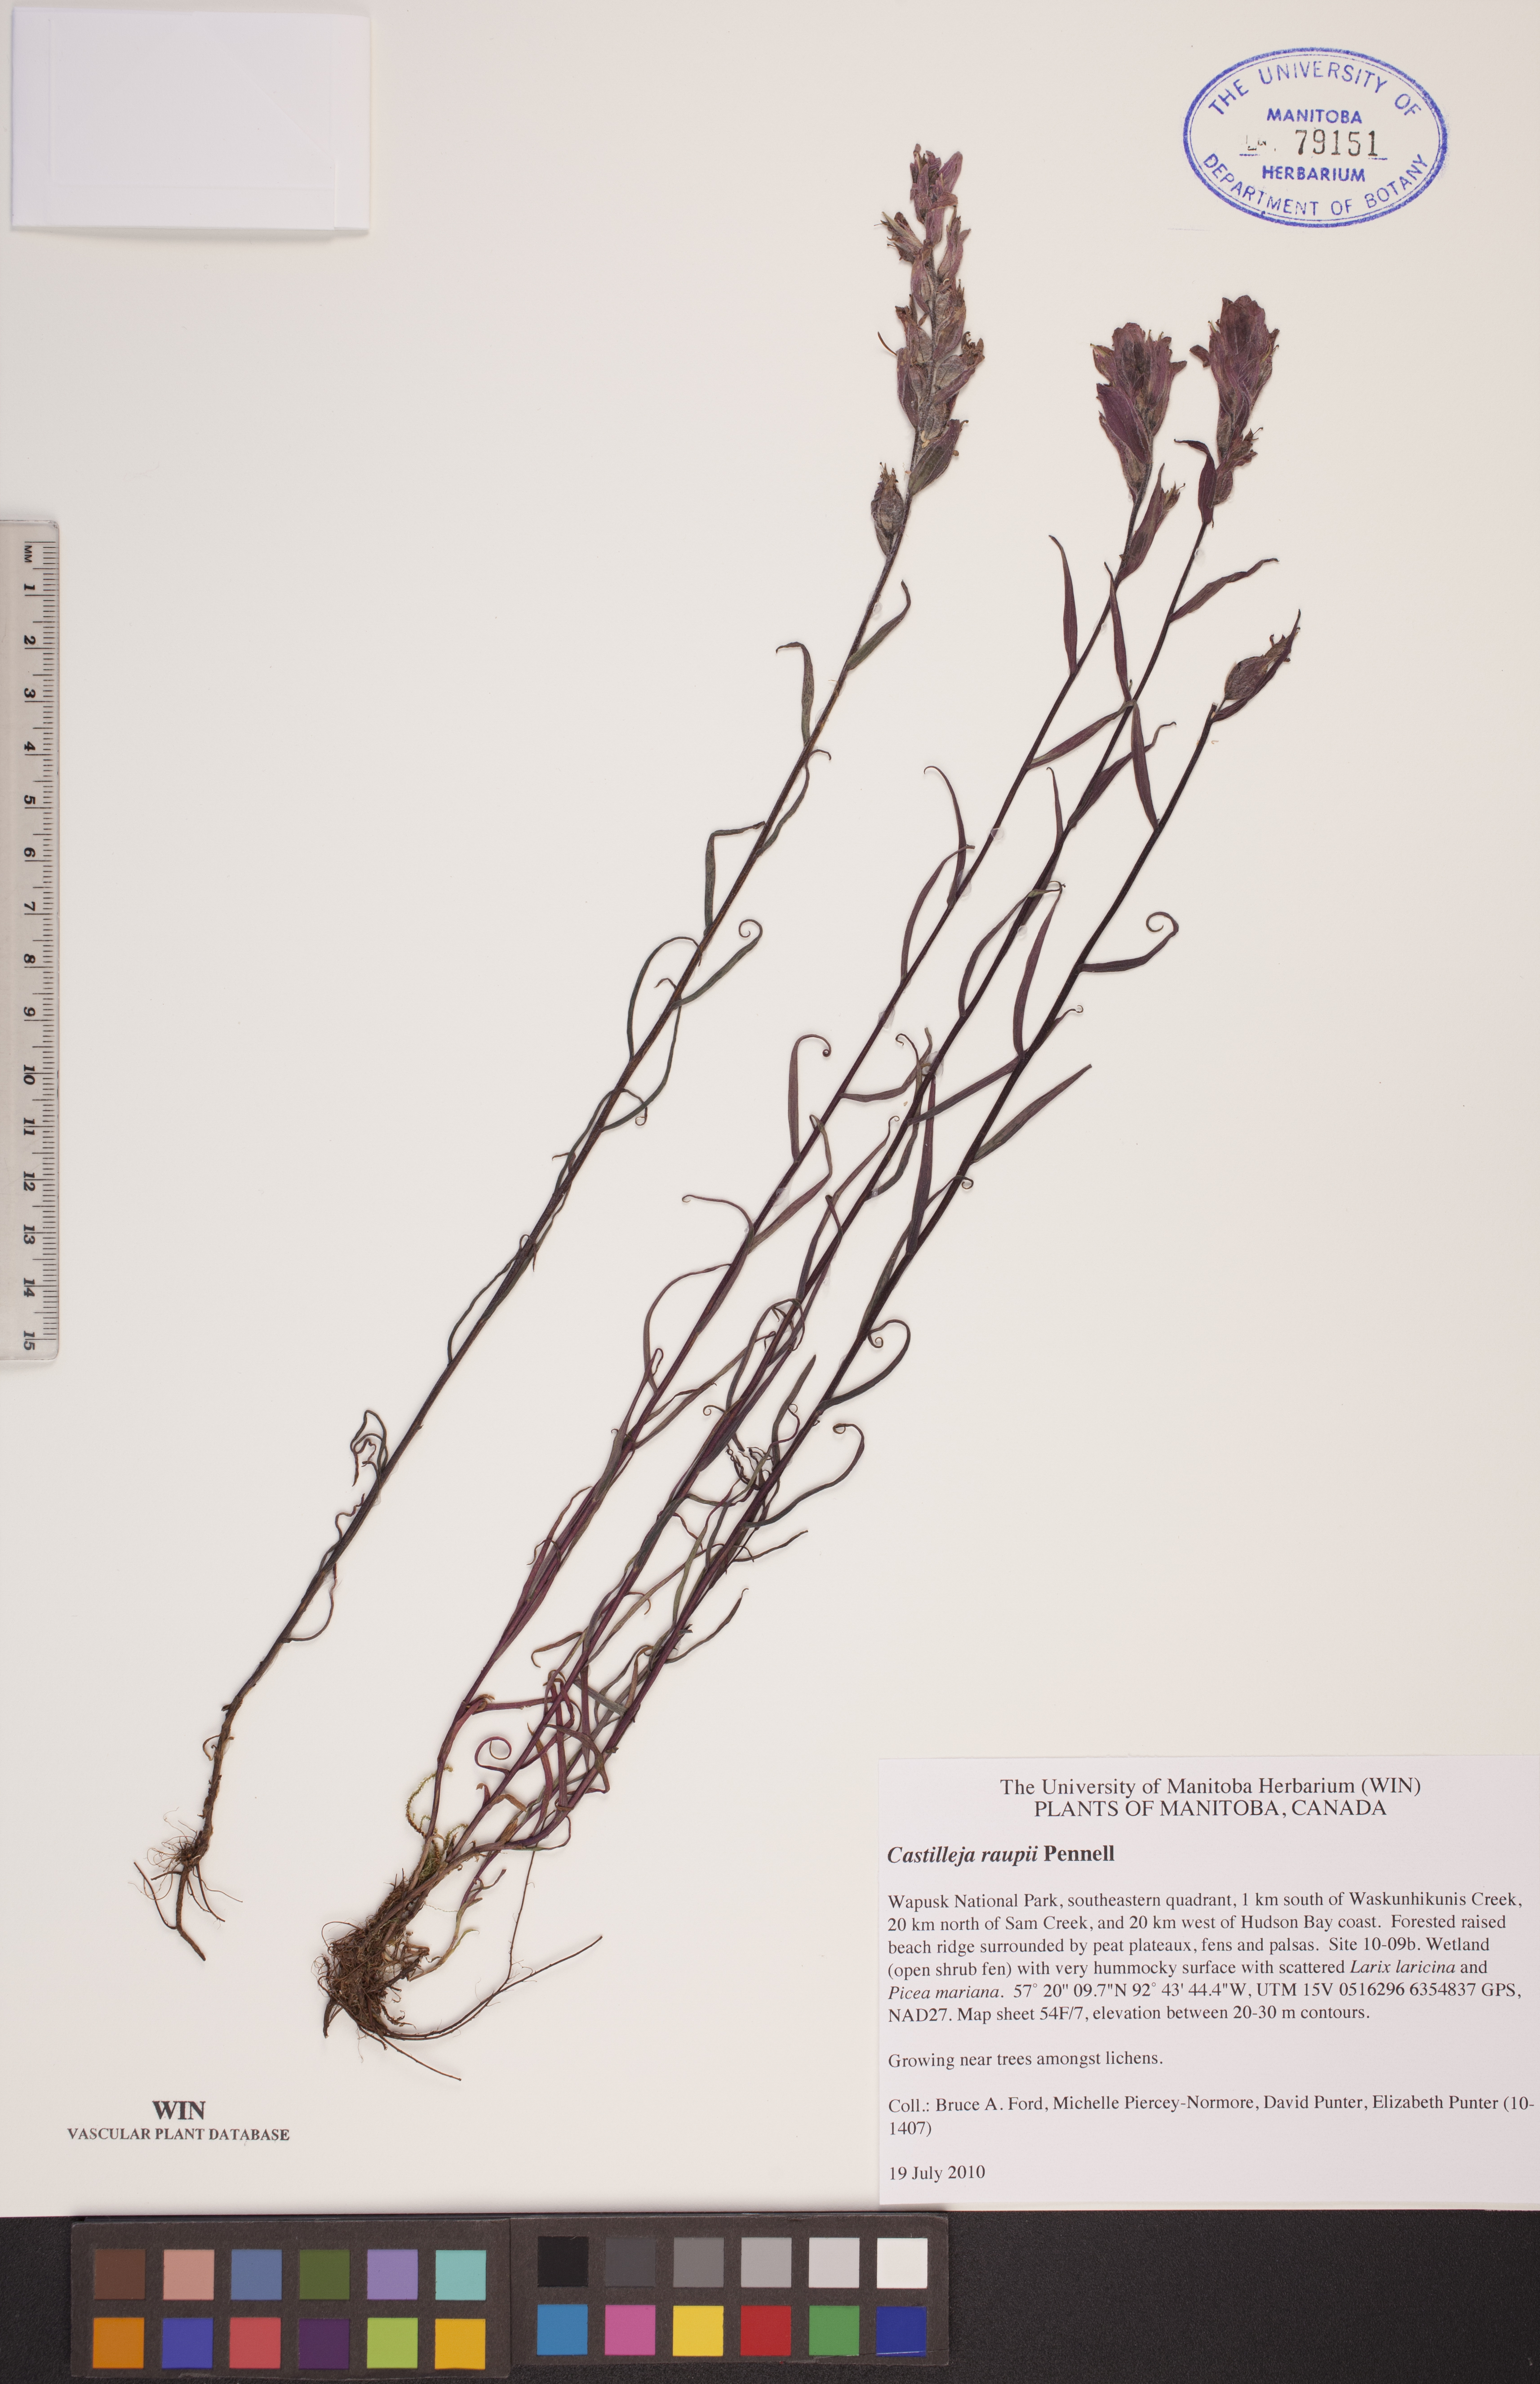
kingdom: Plantae
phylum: Tracheophyta
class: Magnoliopsida
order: Lamiales
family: Orobanchaceae
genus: Castilleja
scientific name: Castilleja raupii
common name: Raup's paintbrush
